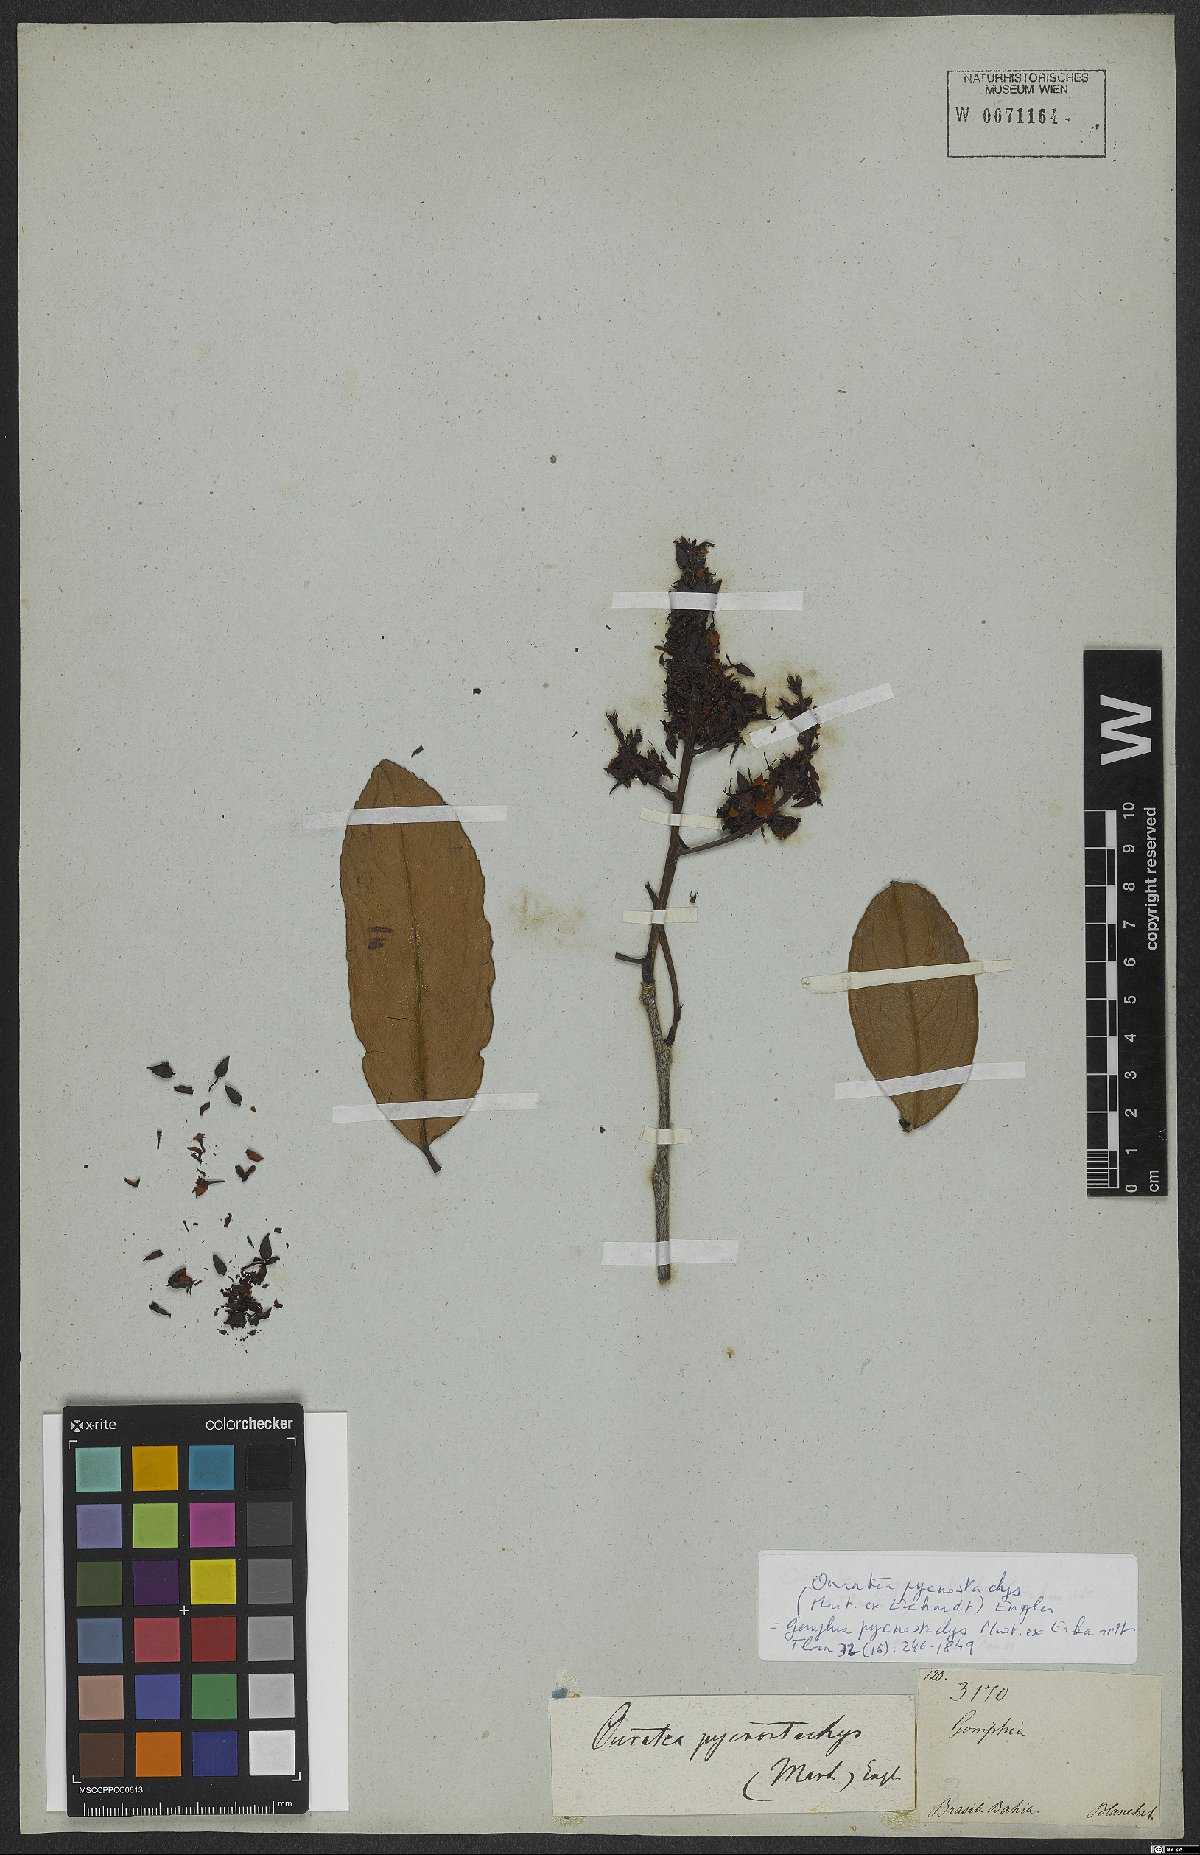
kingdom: Plantae
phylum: Tracheophyta
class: Magnoliopsida
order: Malpighiales
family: Ochnaceae
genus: Ouratea
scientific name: Ouratea pycnostachys
